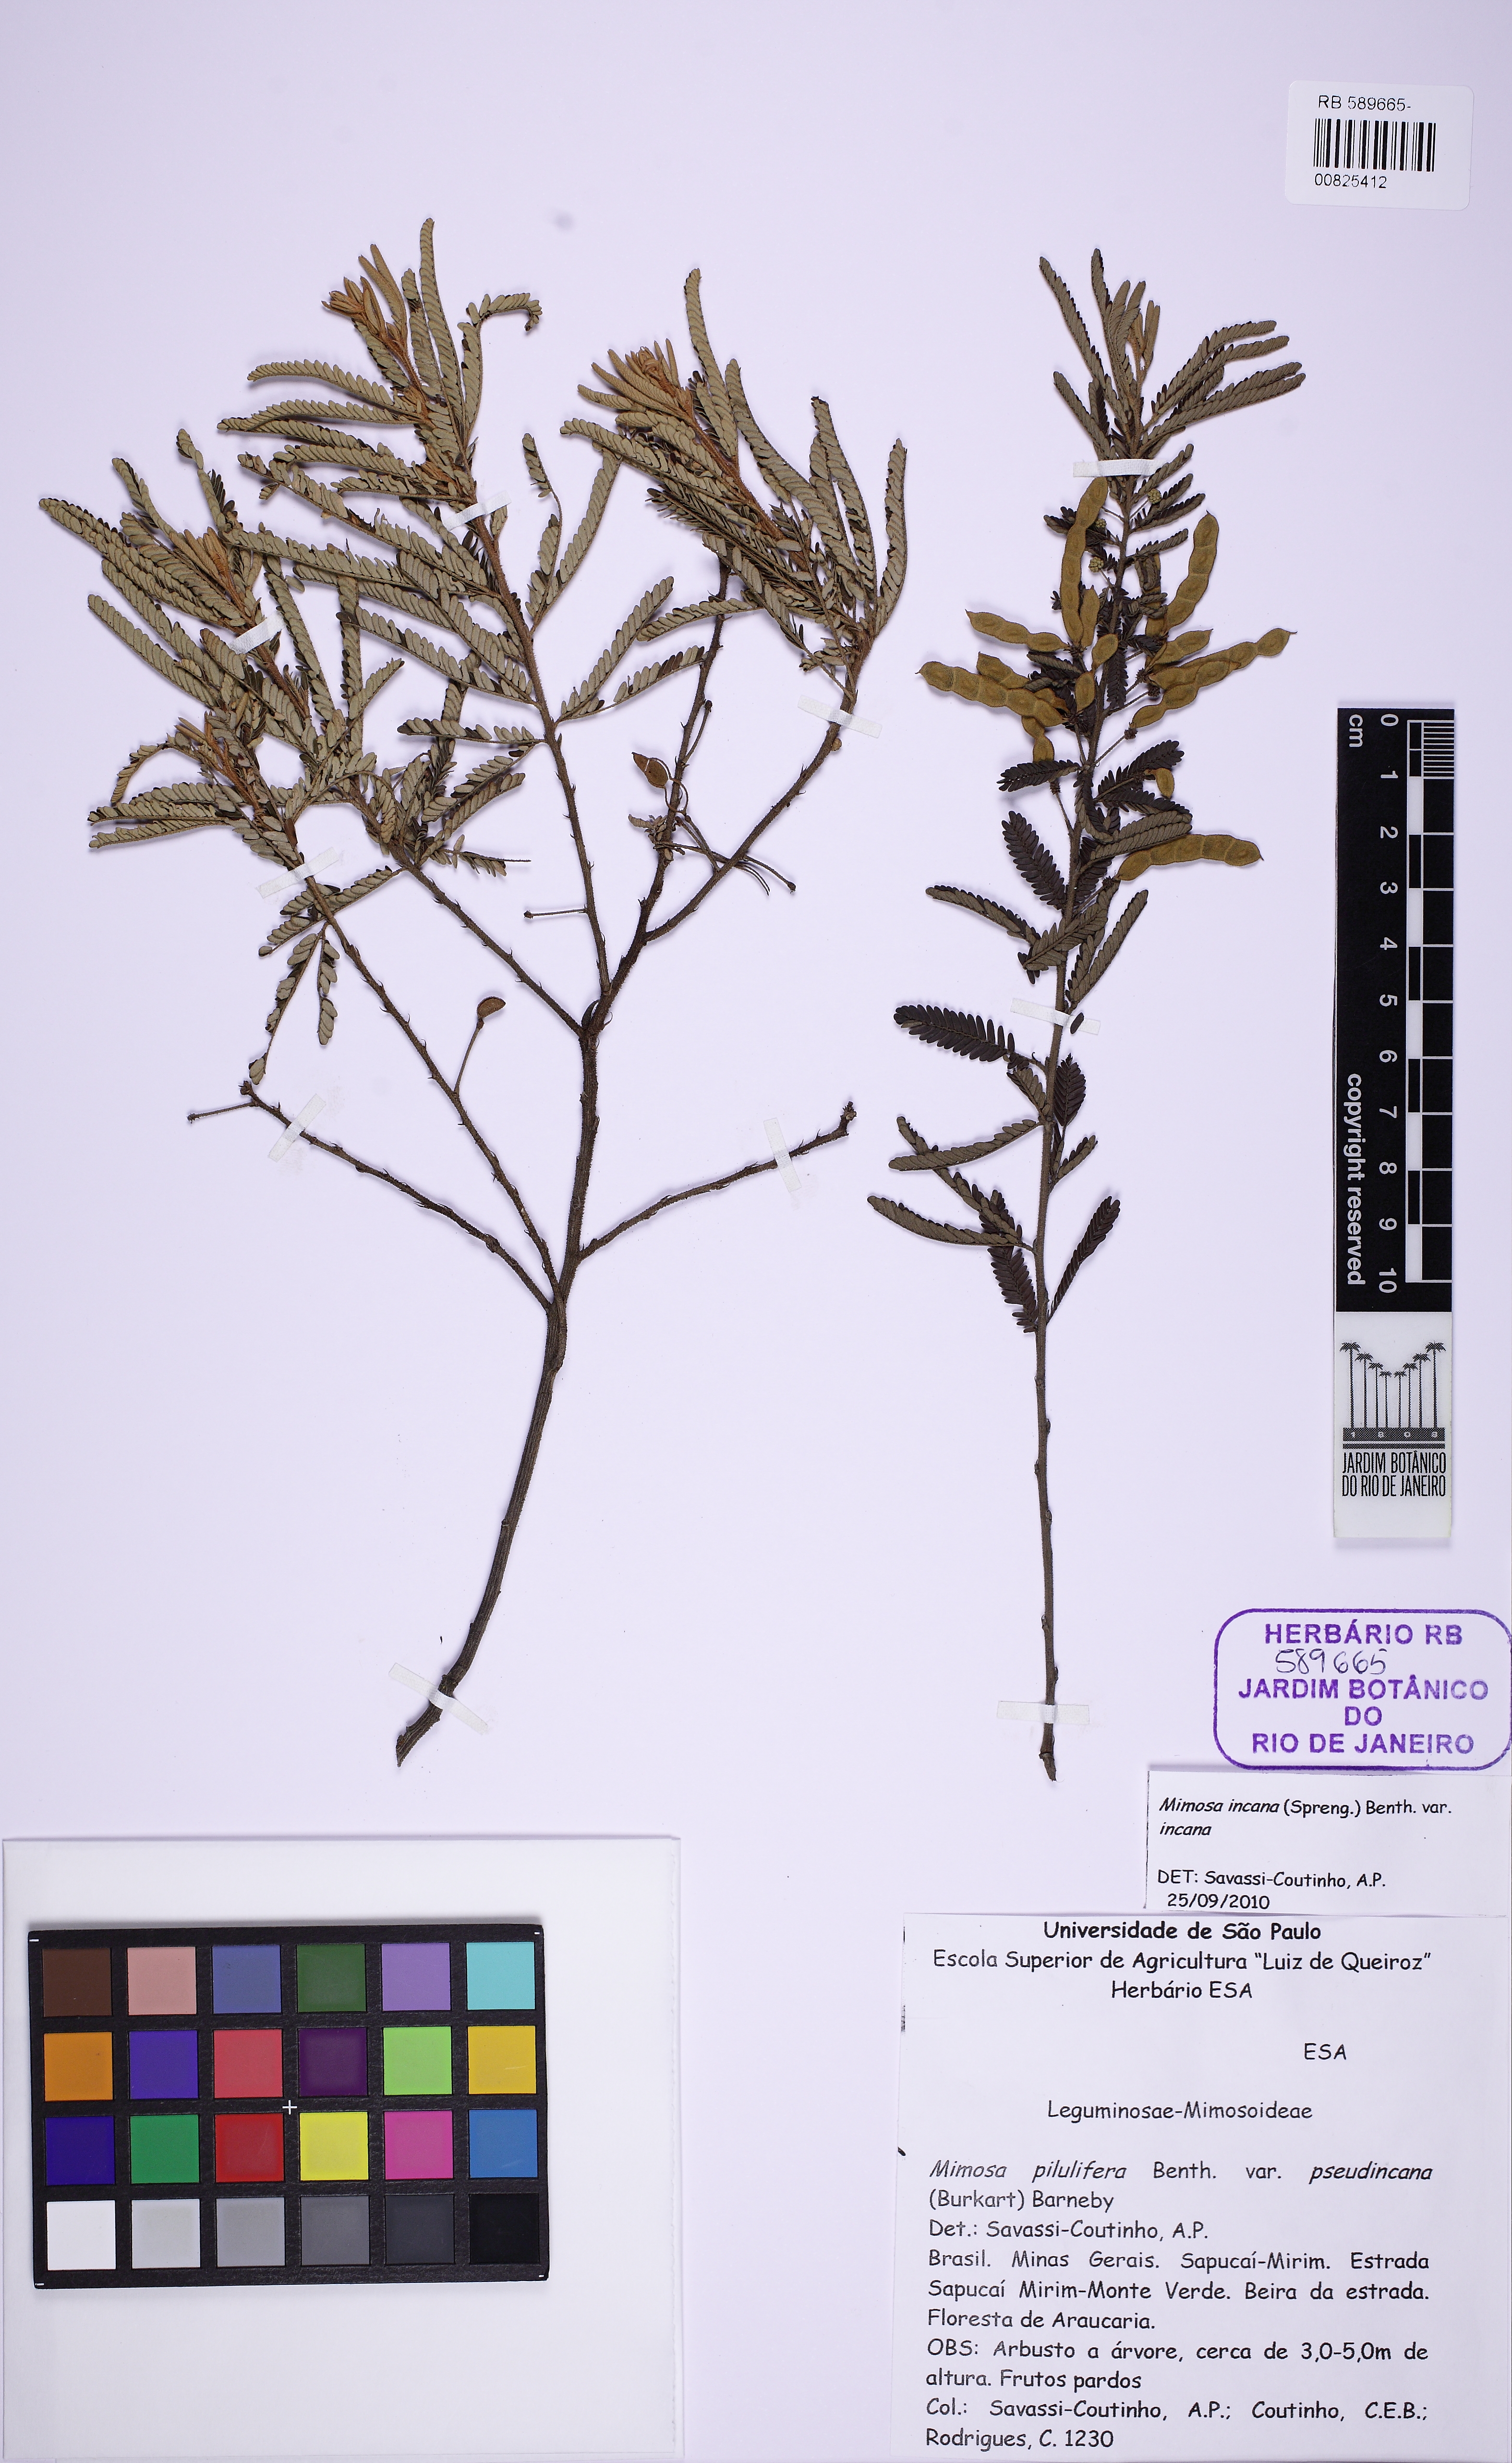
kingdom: Plantae
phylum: Tracheophyta
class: Magnoliopsida
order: Fabales
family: Fabaceae
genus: Mimosa
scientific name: Mimosa incana
